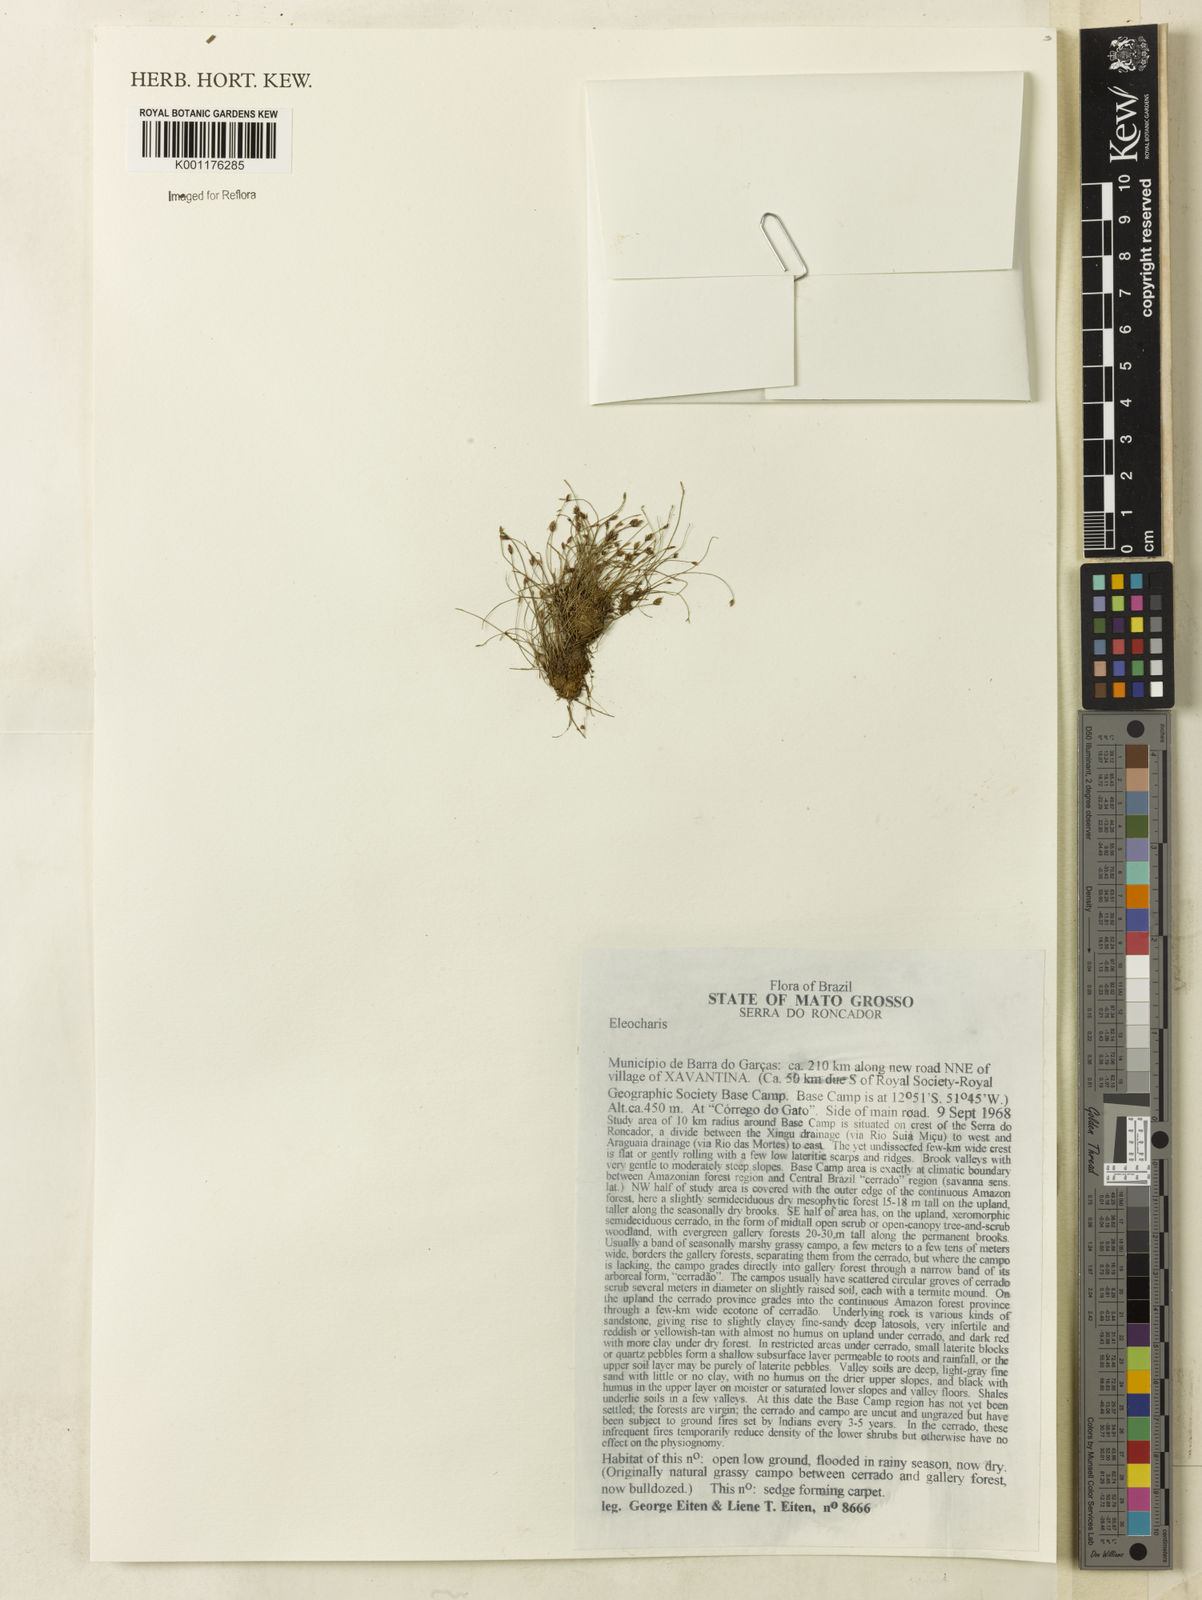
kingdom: Plantae
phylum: Tracheophyta
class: Liliopsida
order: Poales
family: Cyperaceae
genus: Eleocharis
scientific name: Eleocharis
